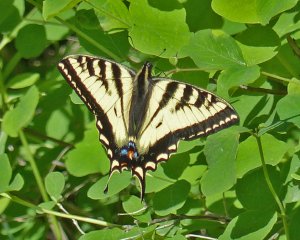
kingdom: Animalia
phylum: Arthropoda
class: Insecta
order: Lepidoptera
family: Papilionidae
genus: Pterourus
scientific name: Pterourus rutulus
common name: Western Tiger Swallowtail
